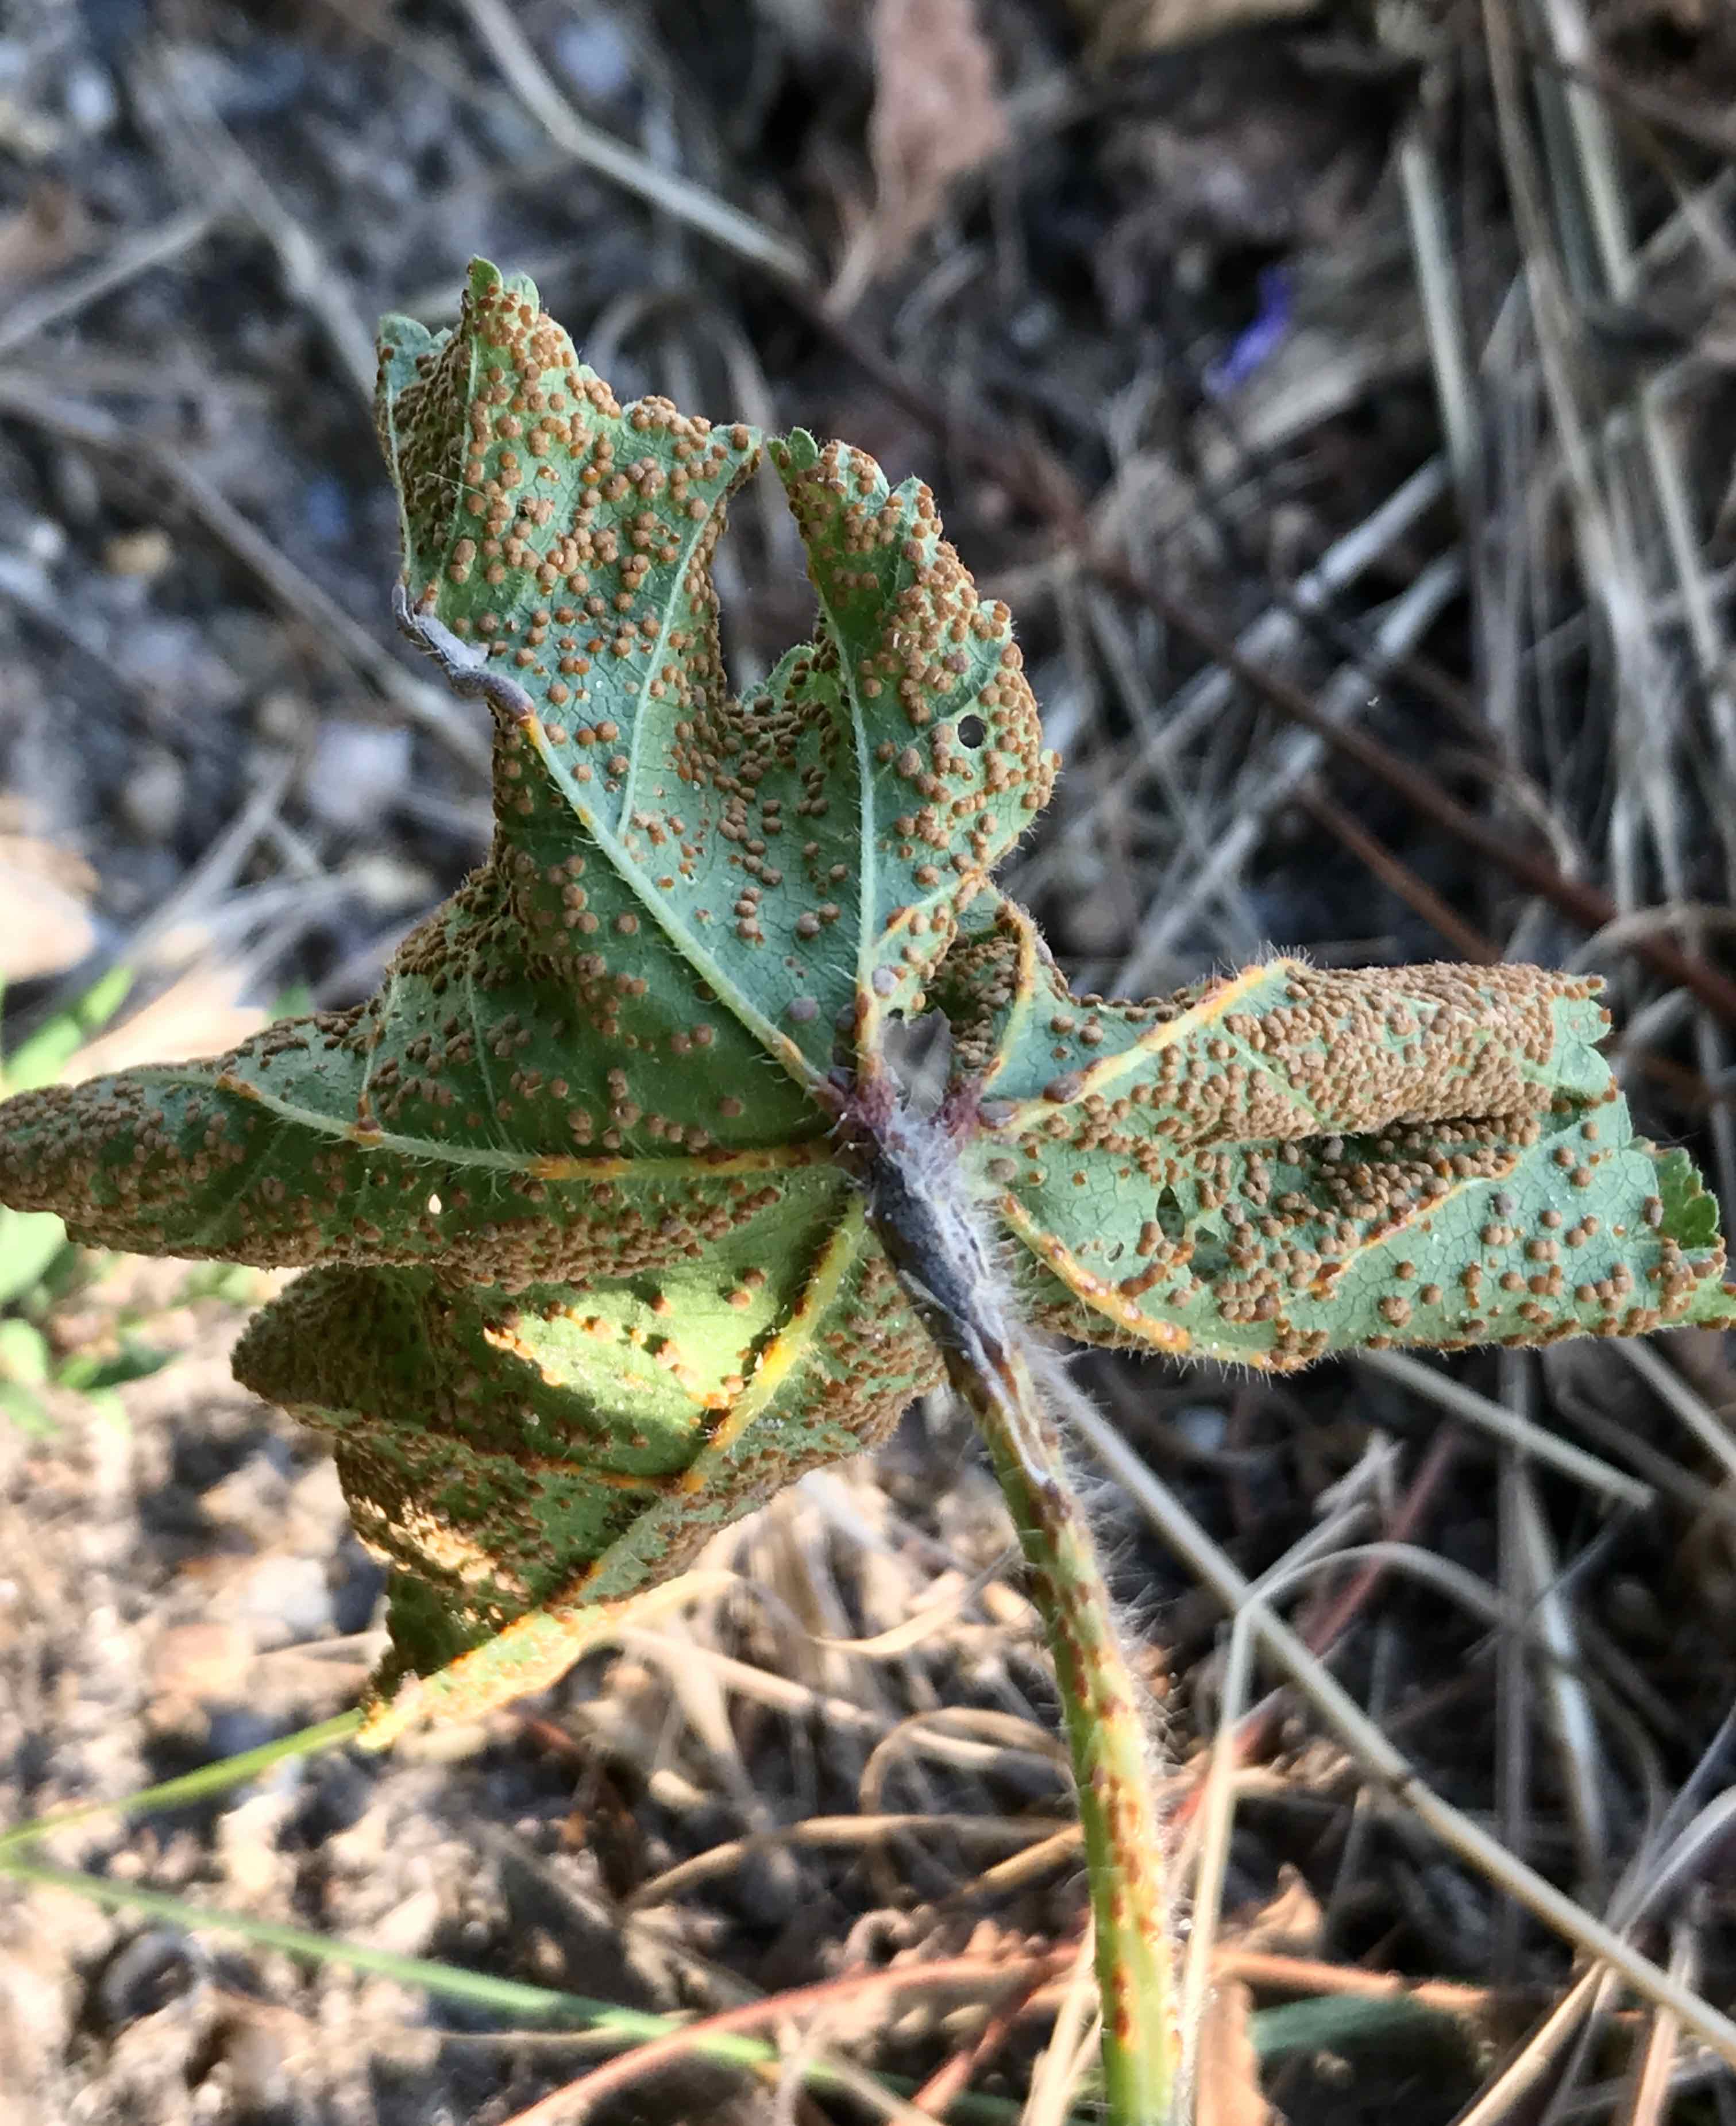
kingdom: Fungi
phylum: Basidiomycota
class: Pucciniomycetes
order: Pucciniales
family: Pucciniaceae
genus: Puccinia
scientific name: Puccinia malvacearum
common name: stokrose-tvecellerust
